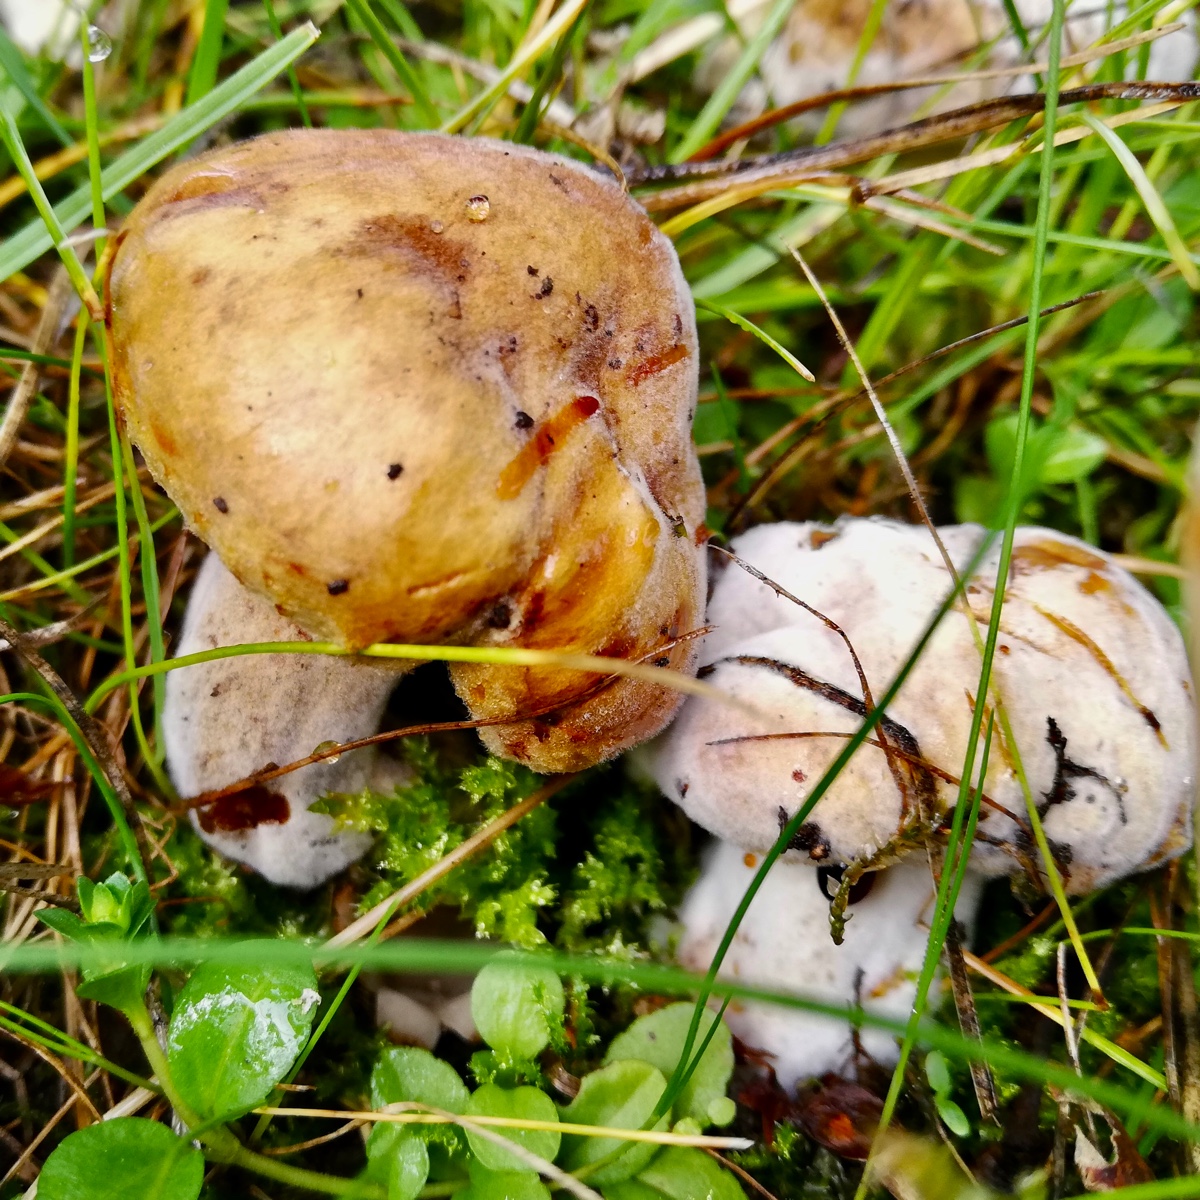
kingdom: Fungi
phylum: Basidiomycota
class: Agaricomycetes
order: Boletales
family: Paxillaceae
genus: Paxillus
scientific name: Paxillus
